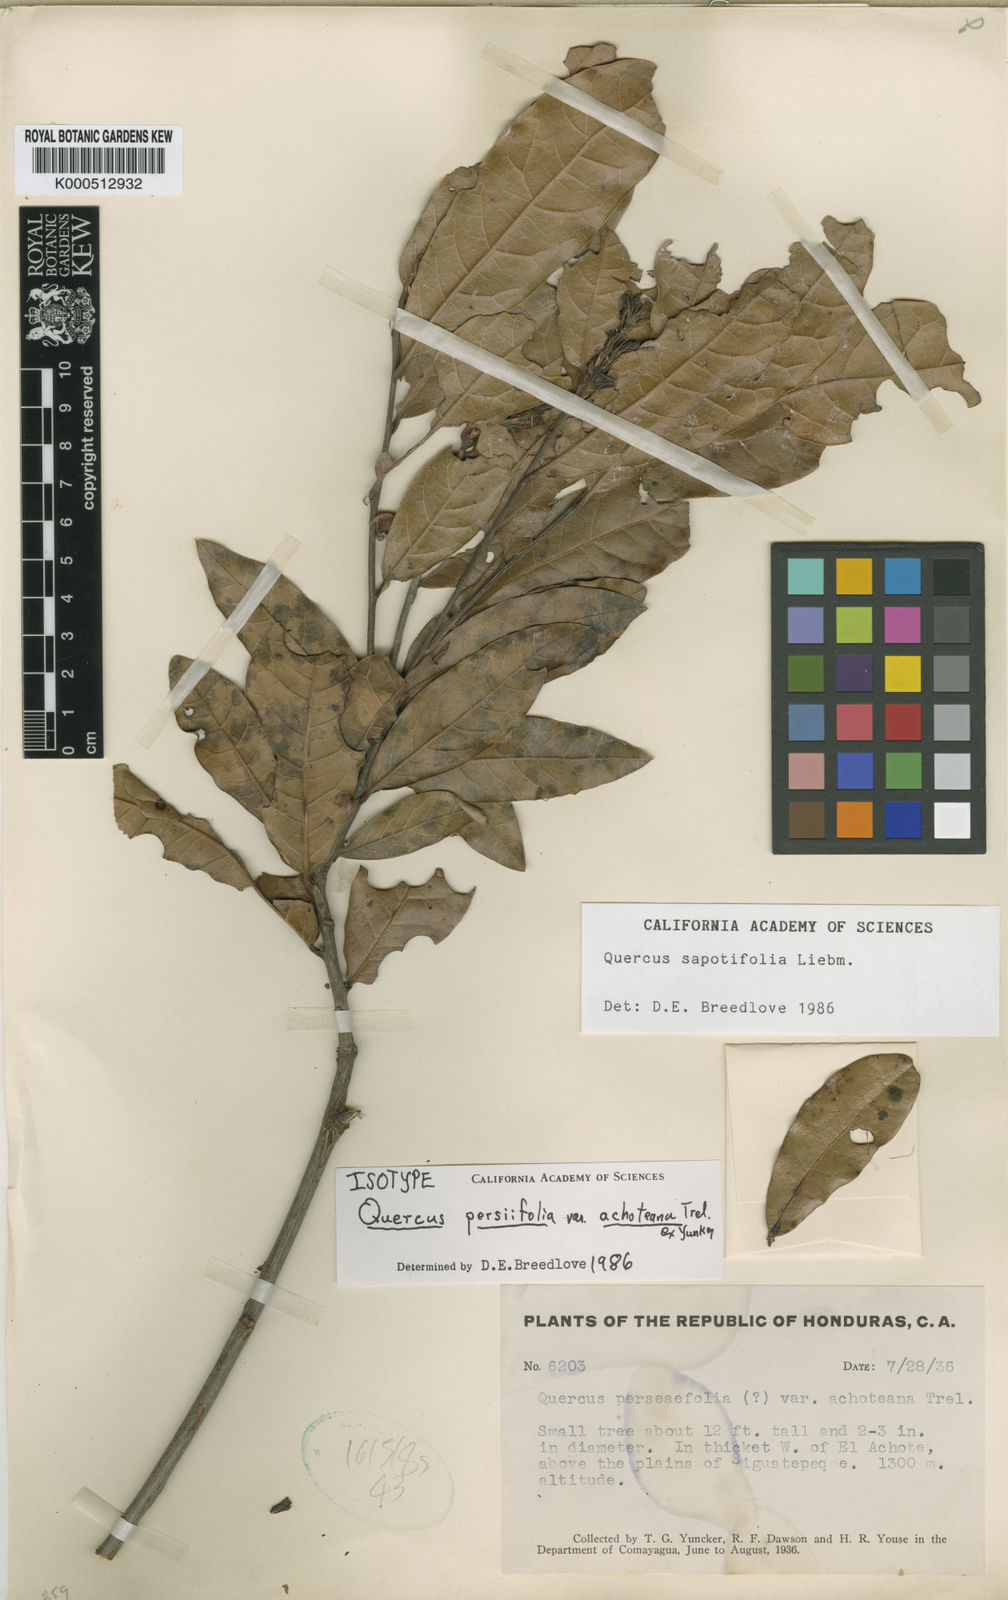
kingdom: Plantae
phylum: Tracheophyta
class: Magnoliopsida
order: Fagales
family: Fagaceae
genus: Quercus
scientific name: Quercus sapotifolia
